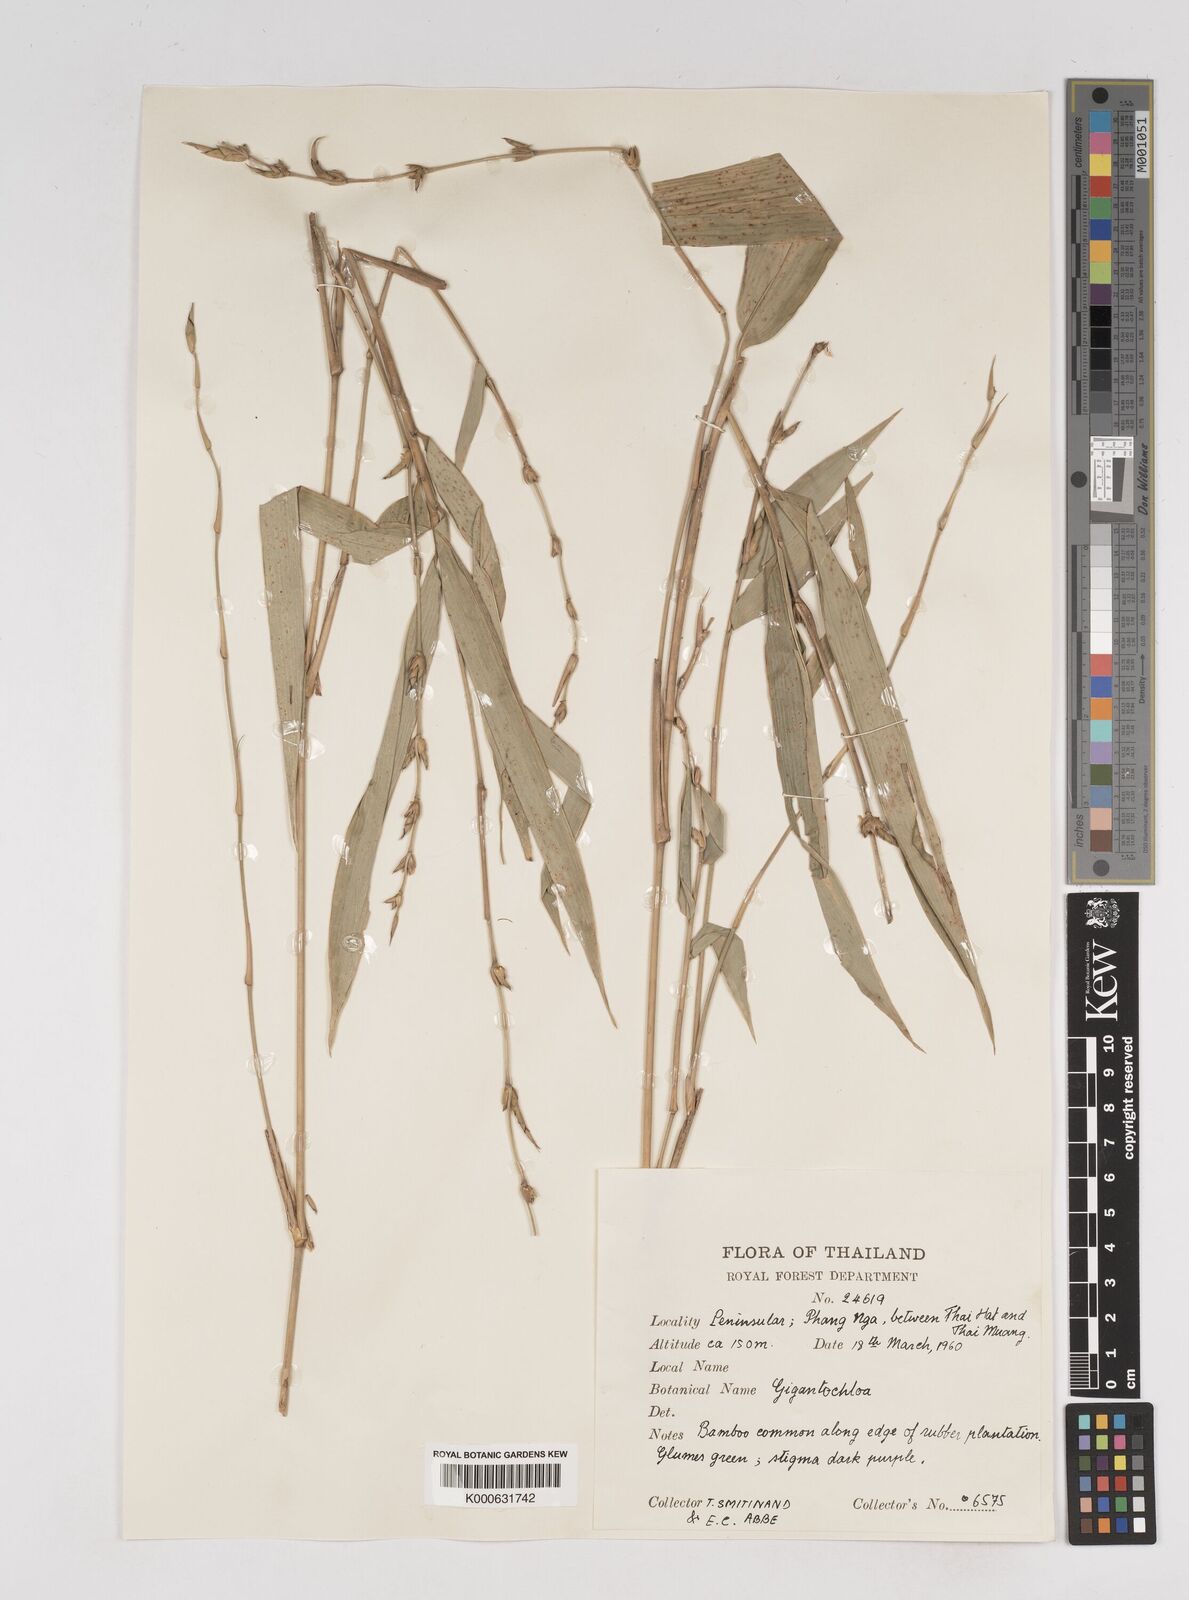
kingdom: Plantae
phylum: Tracheophyta
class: Liliopsida
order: Poales
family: Poaceae
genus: Gigantochloa
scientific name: Gigantochloa latifolia
